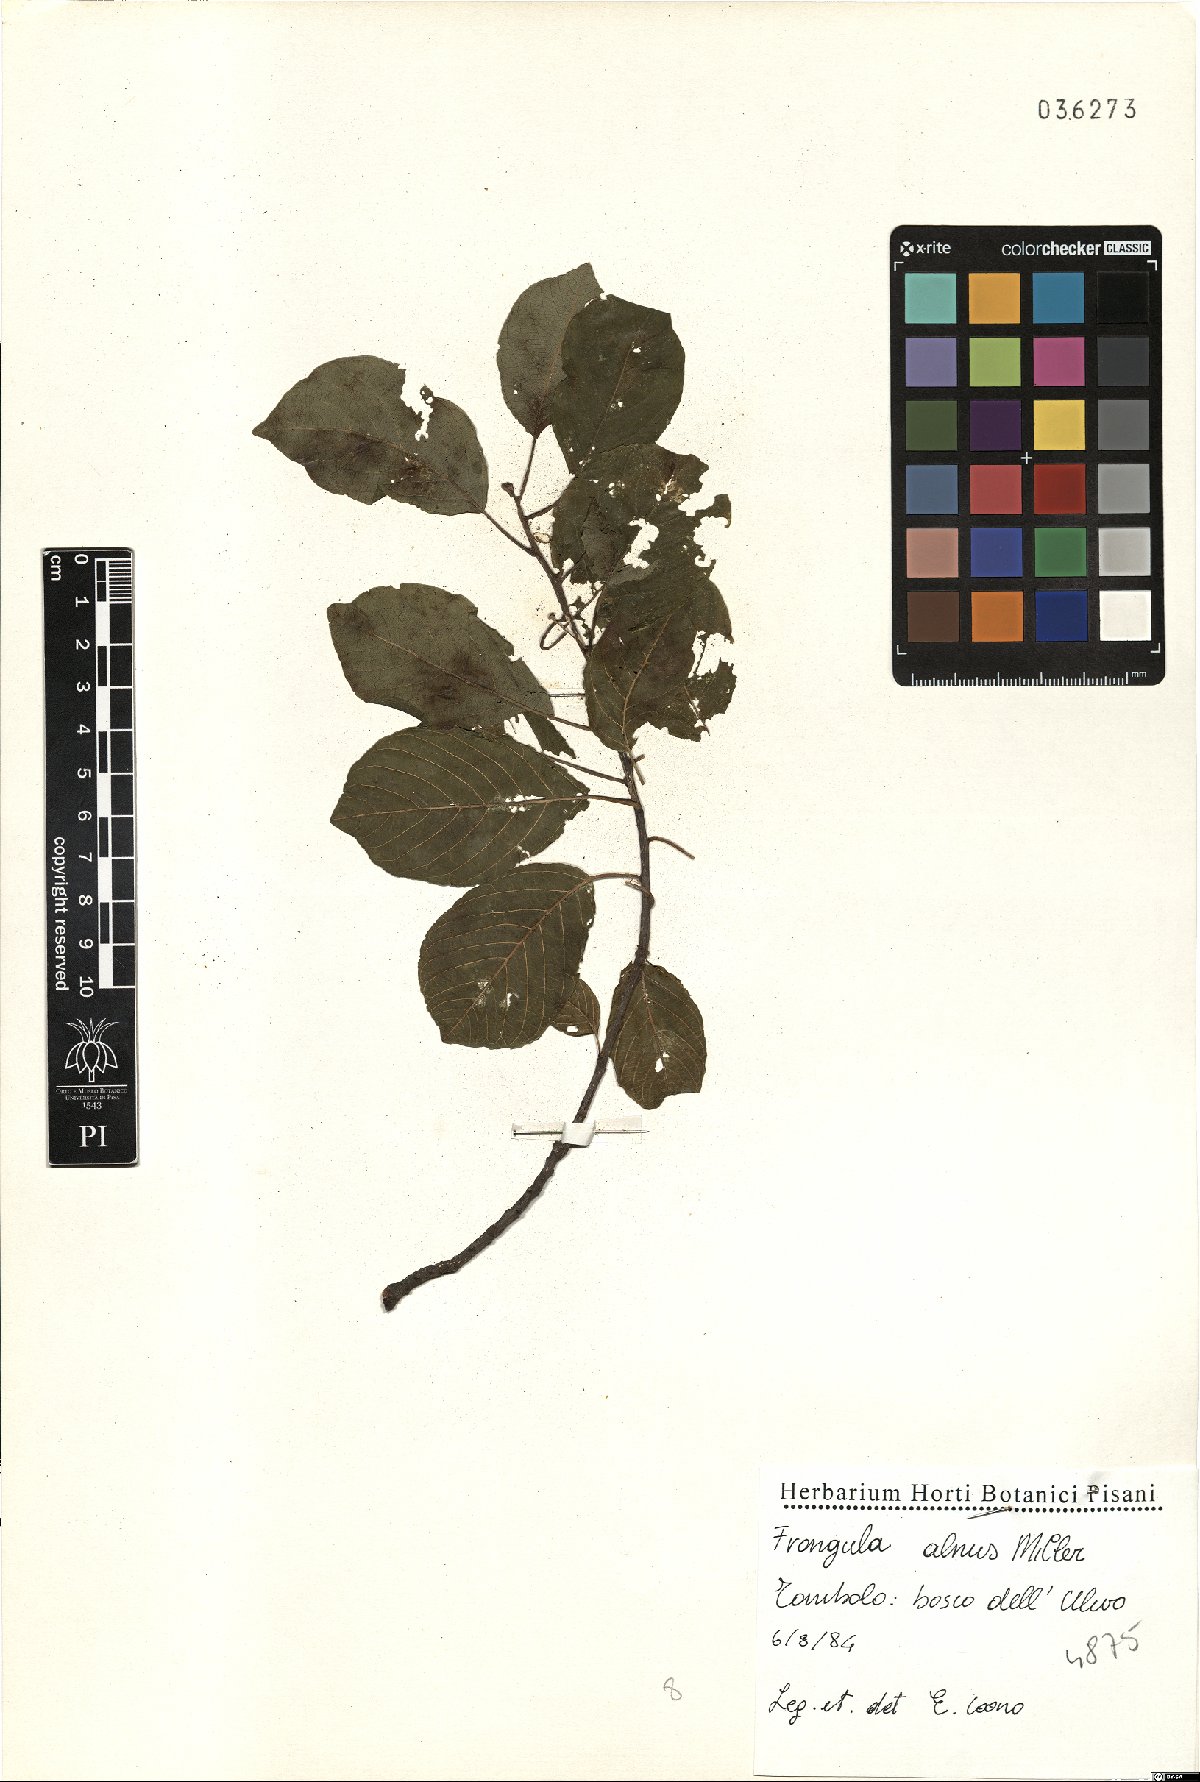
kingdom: Plantae
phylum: Tracheophyta
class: Magnoliopsida
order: Rosales
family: Rhamnaceae
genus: Frangula
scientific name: Frangula alnus
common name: Alder buckthorn
